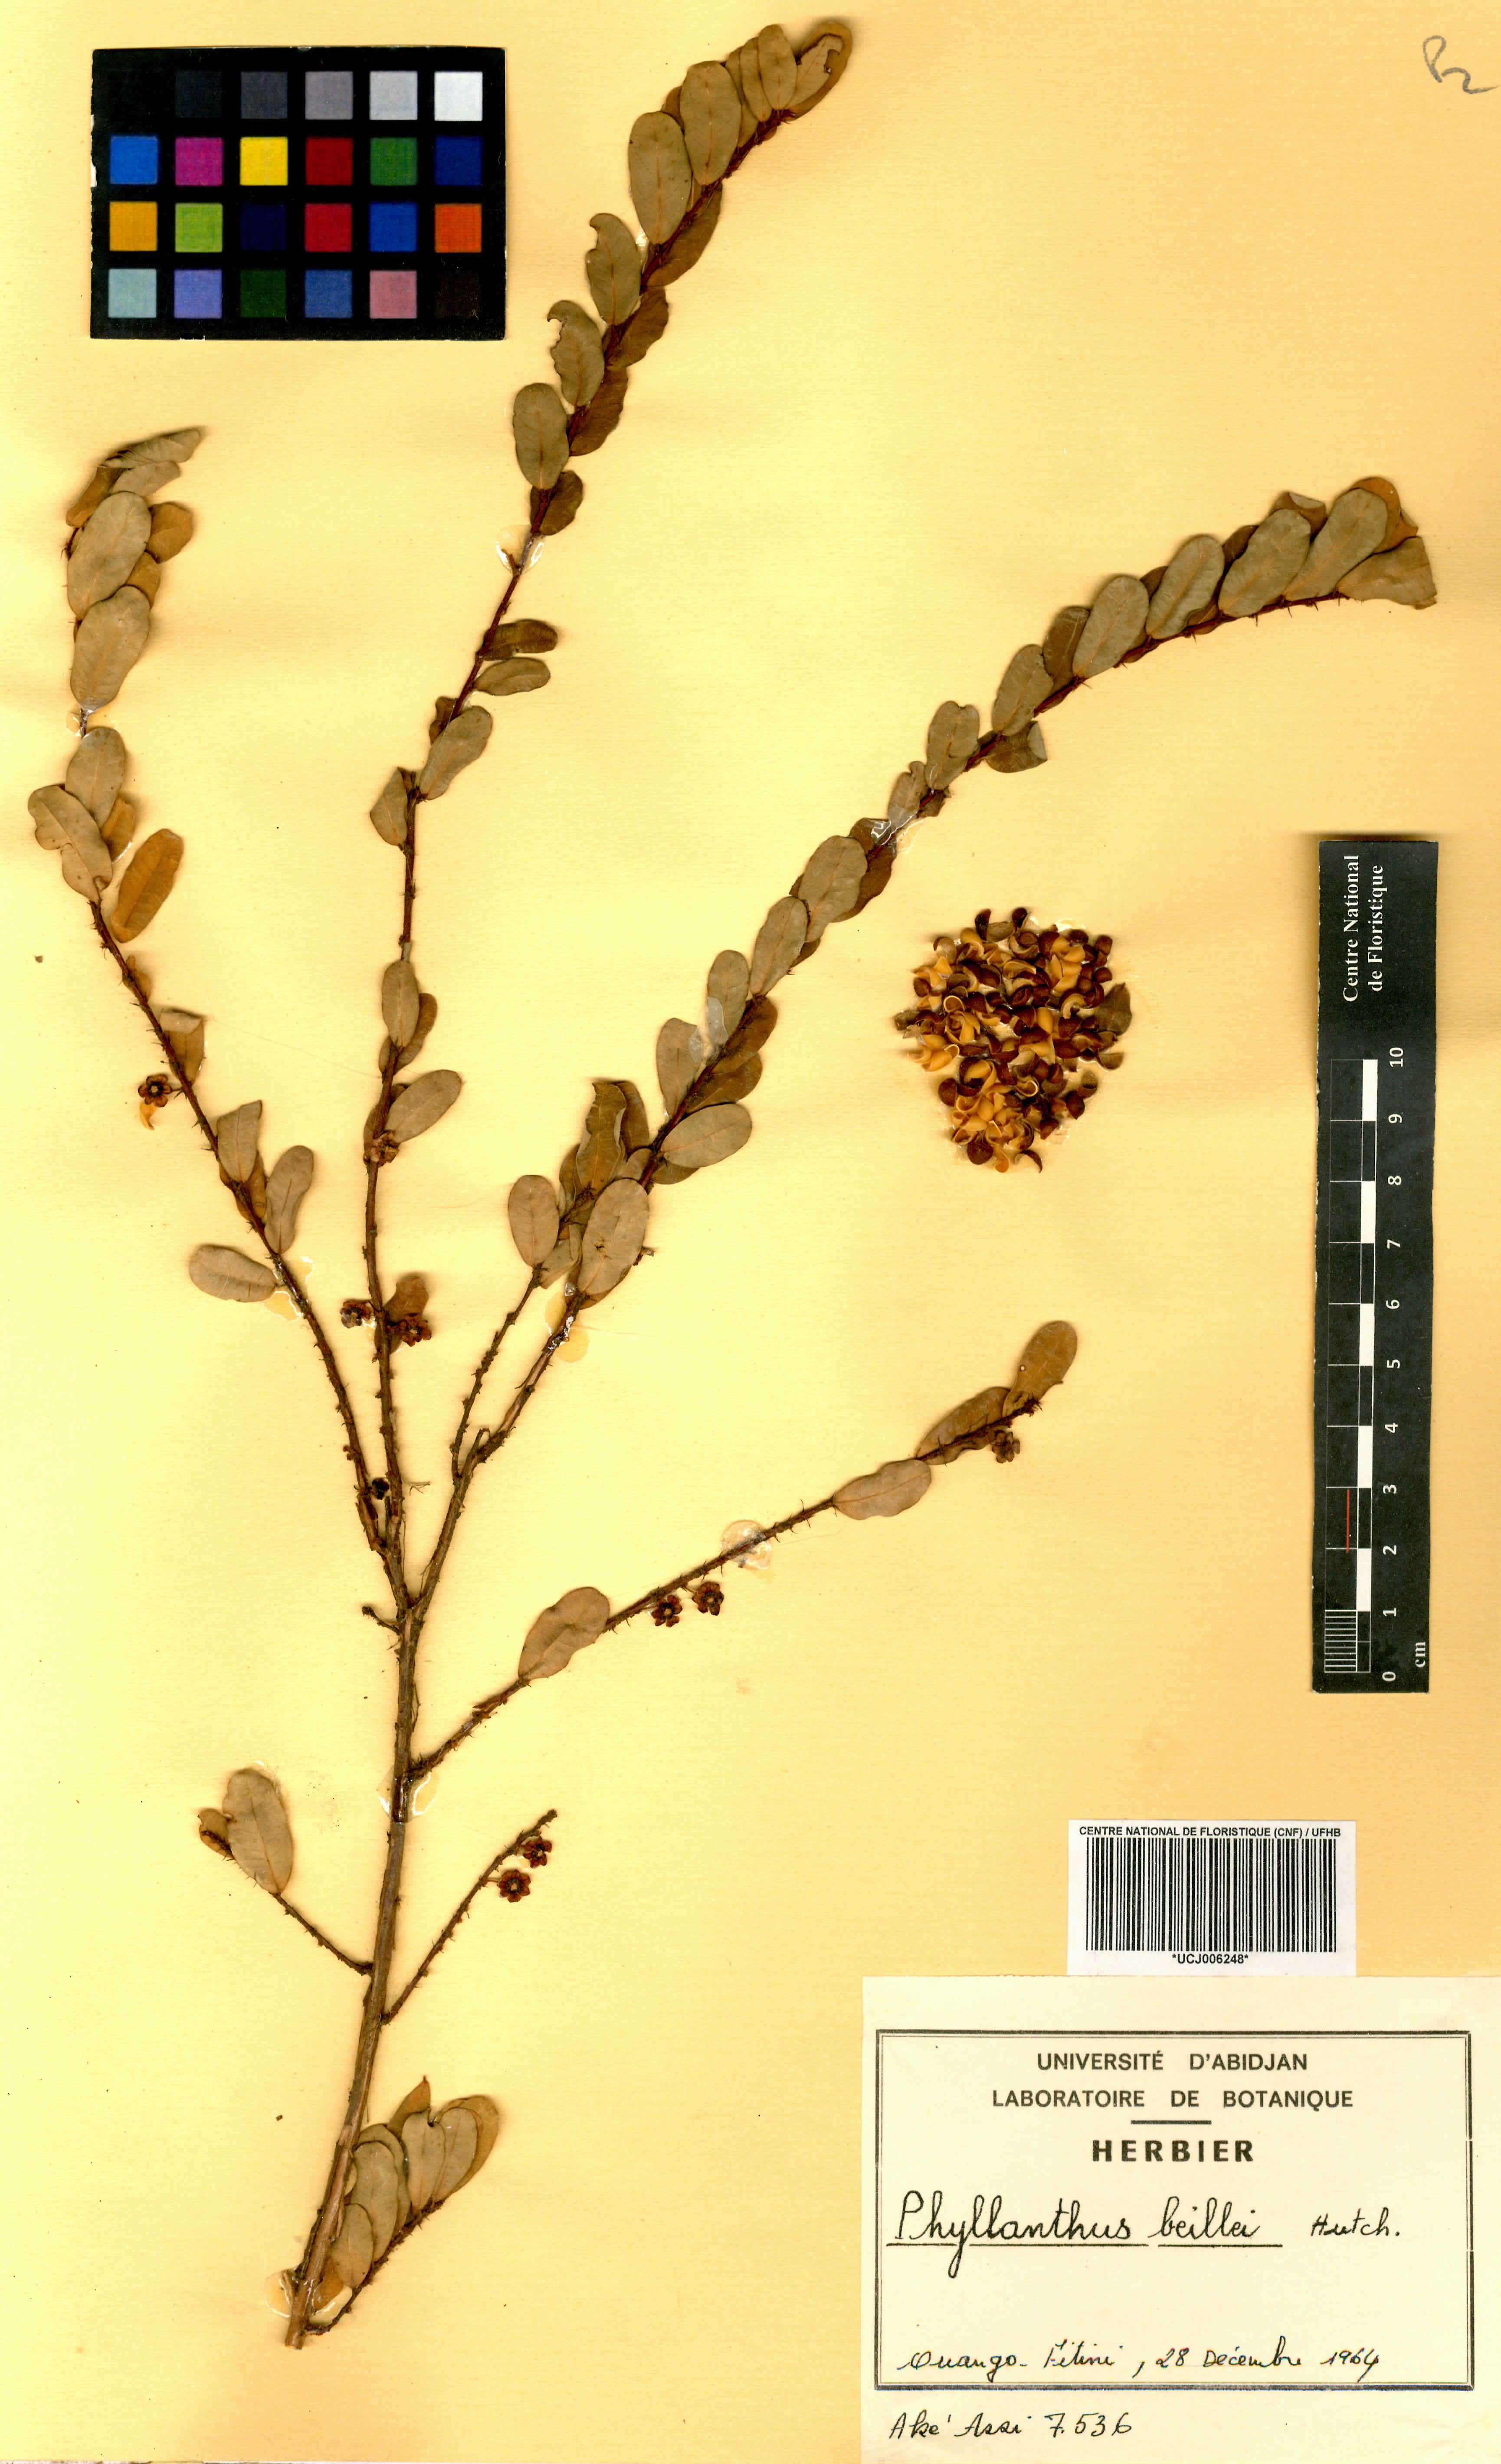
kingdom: Plantae
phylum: Tracheophyta
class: Magnoliopsida
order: Malpighiales
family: Phyllanthaceae
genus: Phyllanthus
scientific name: Phyllanthus welwitschianus
